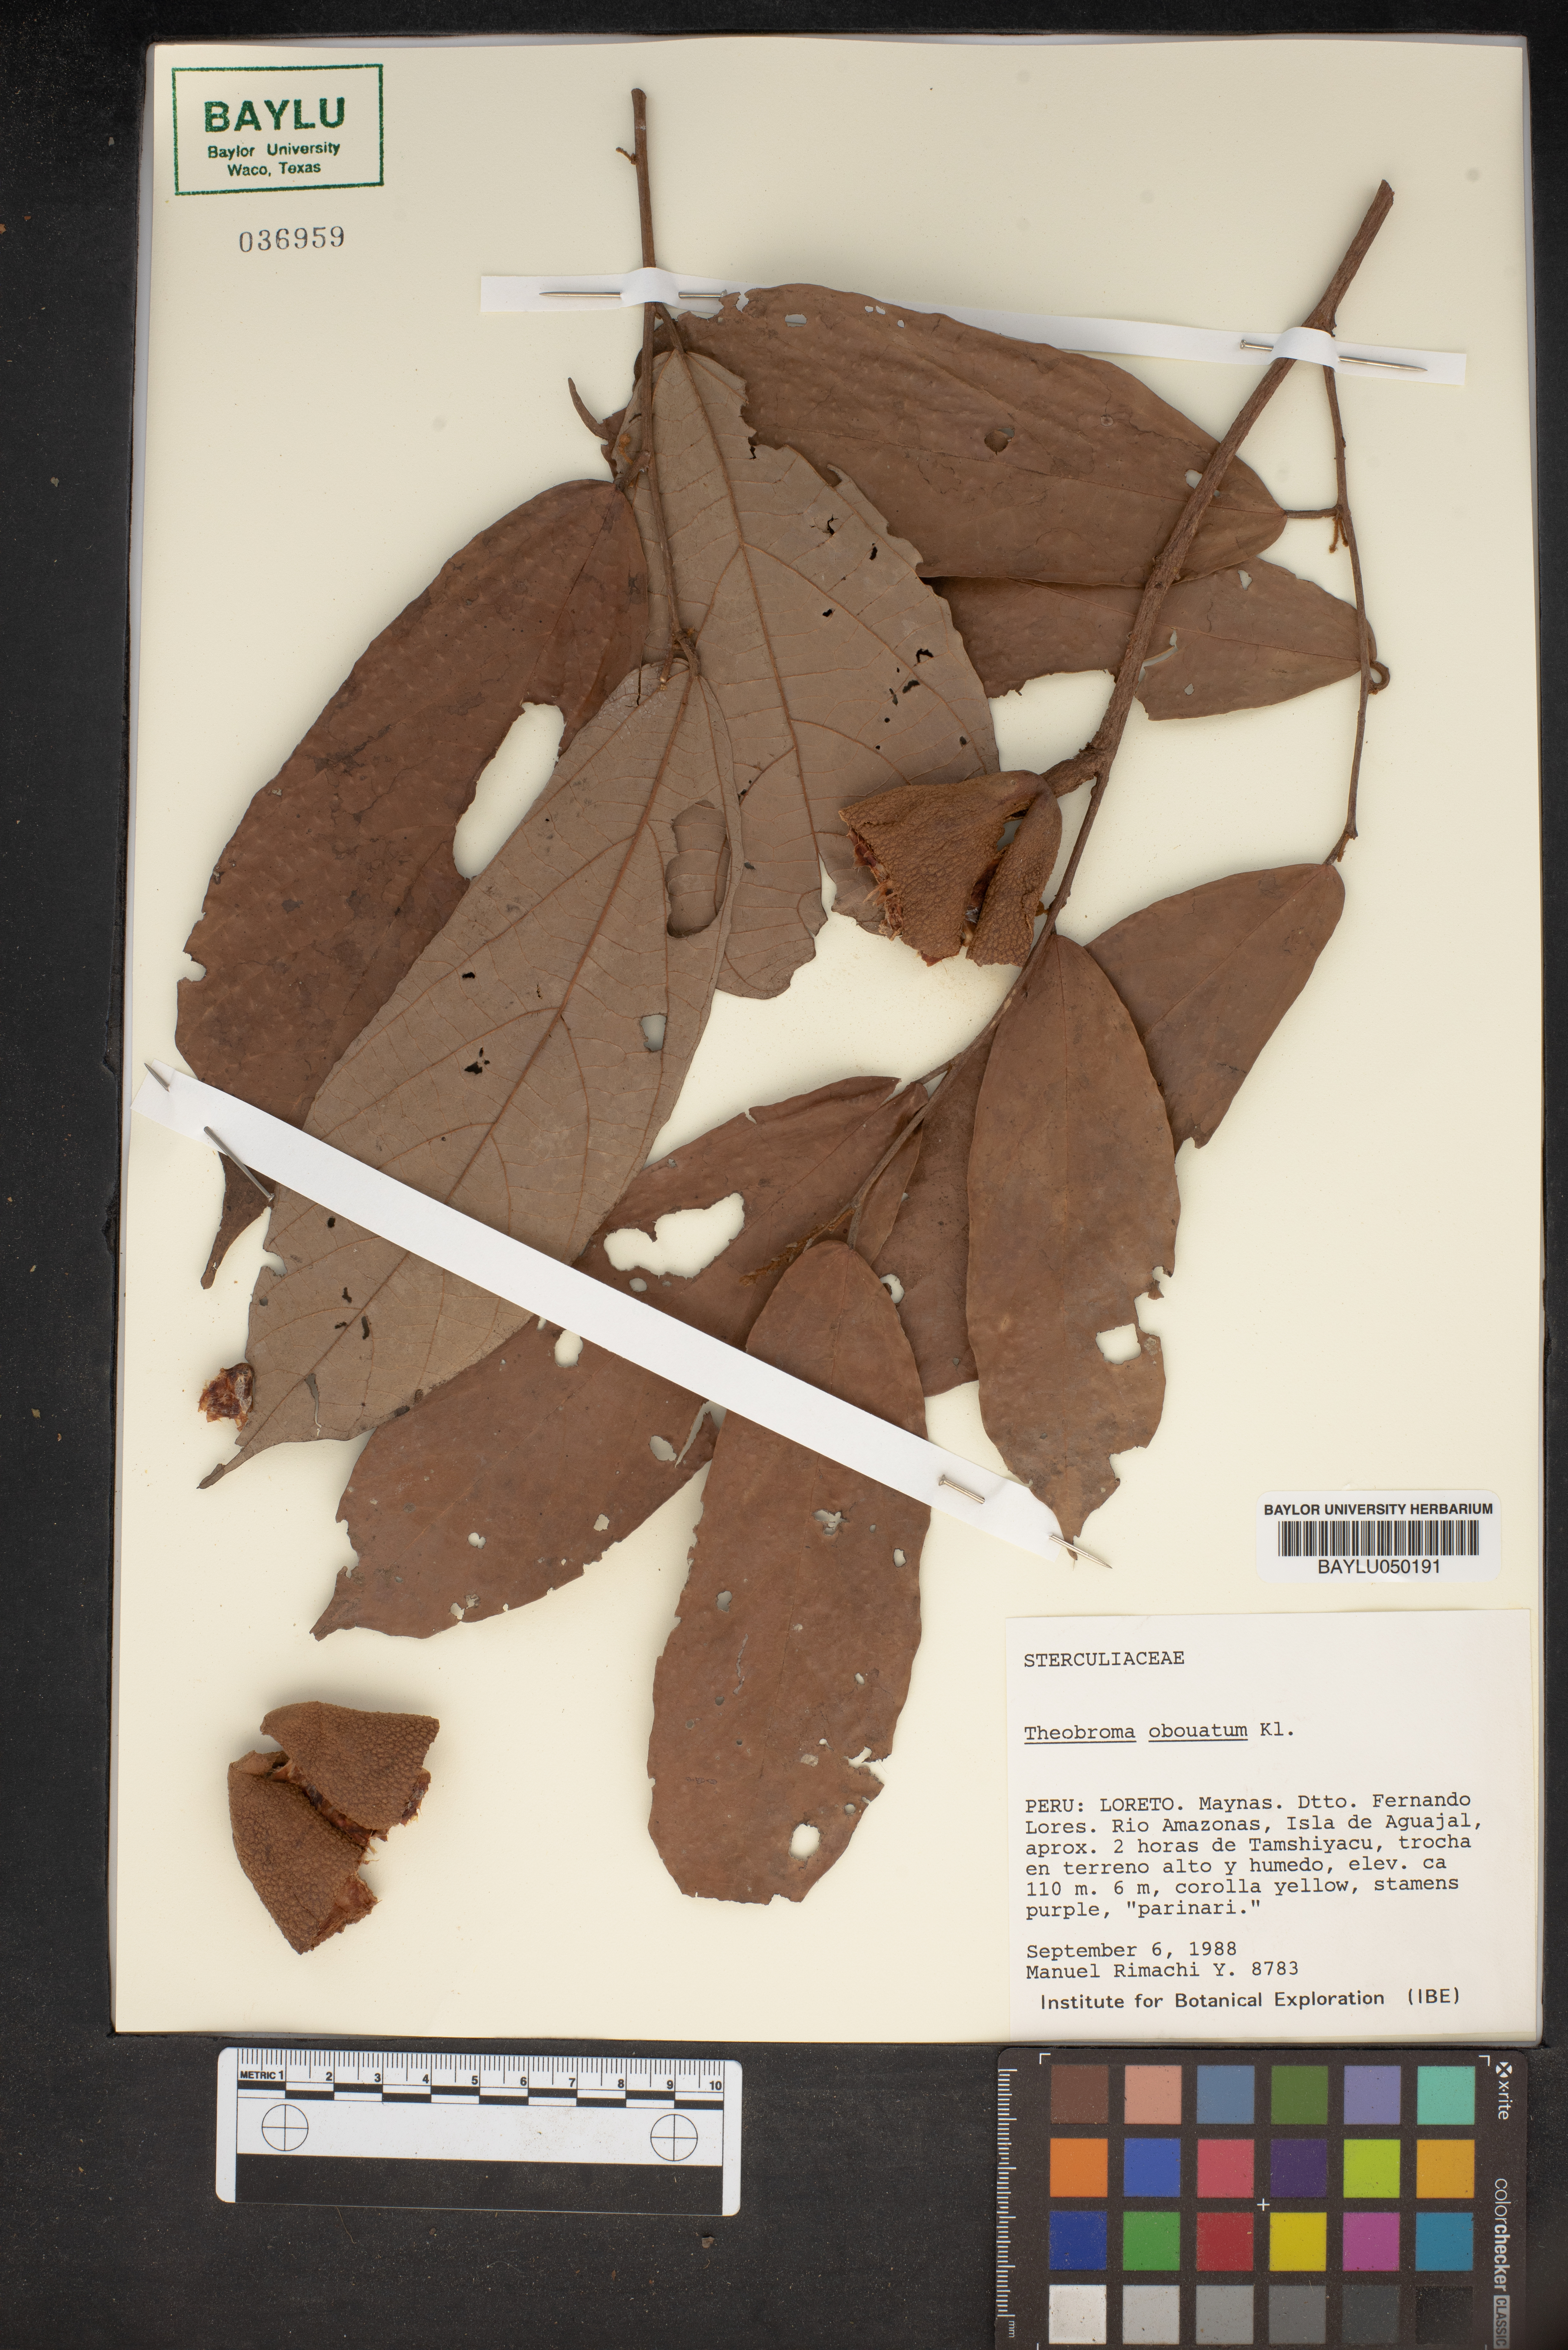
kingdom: Plantae
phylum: Tracheophyta
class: Magnoliopsida
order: Malvales
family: Malvaceae
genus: Theobroma
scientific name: Theobroma obovatum
